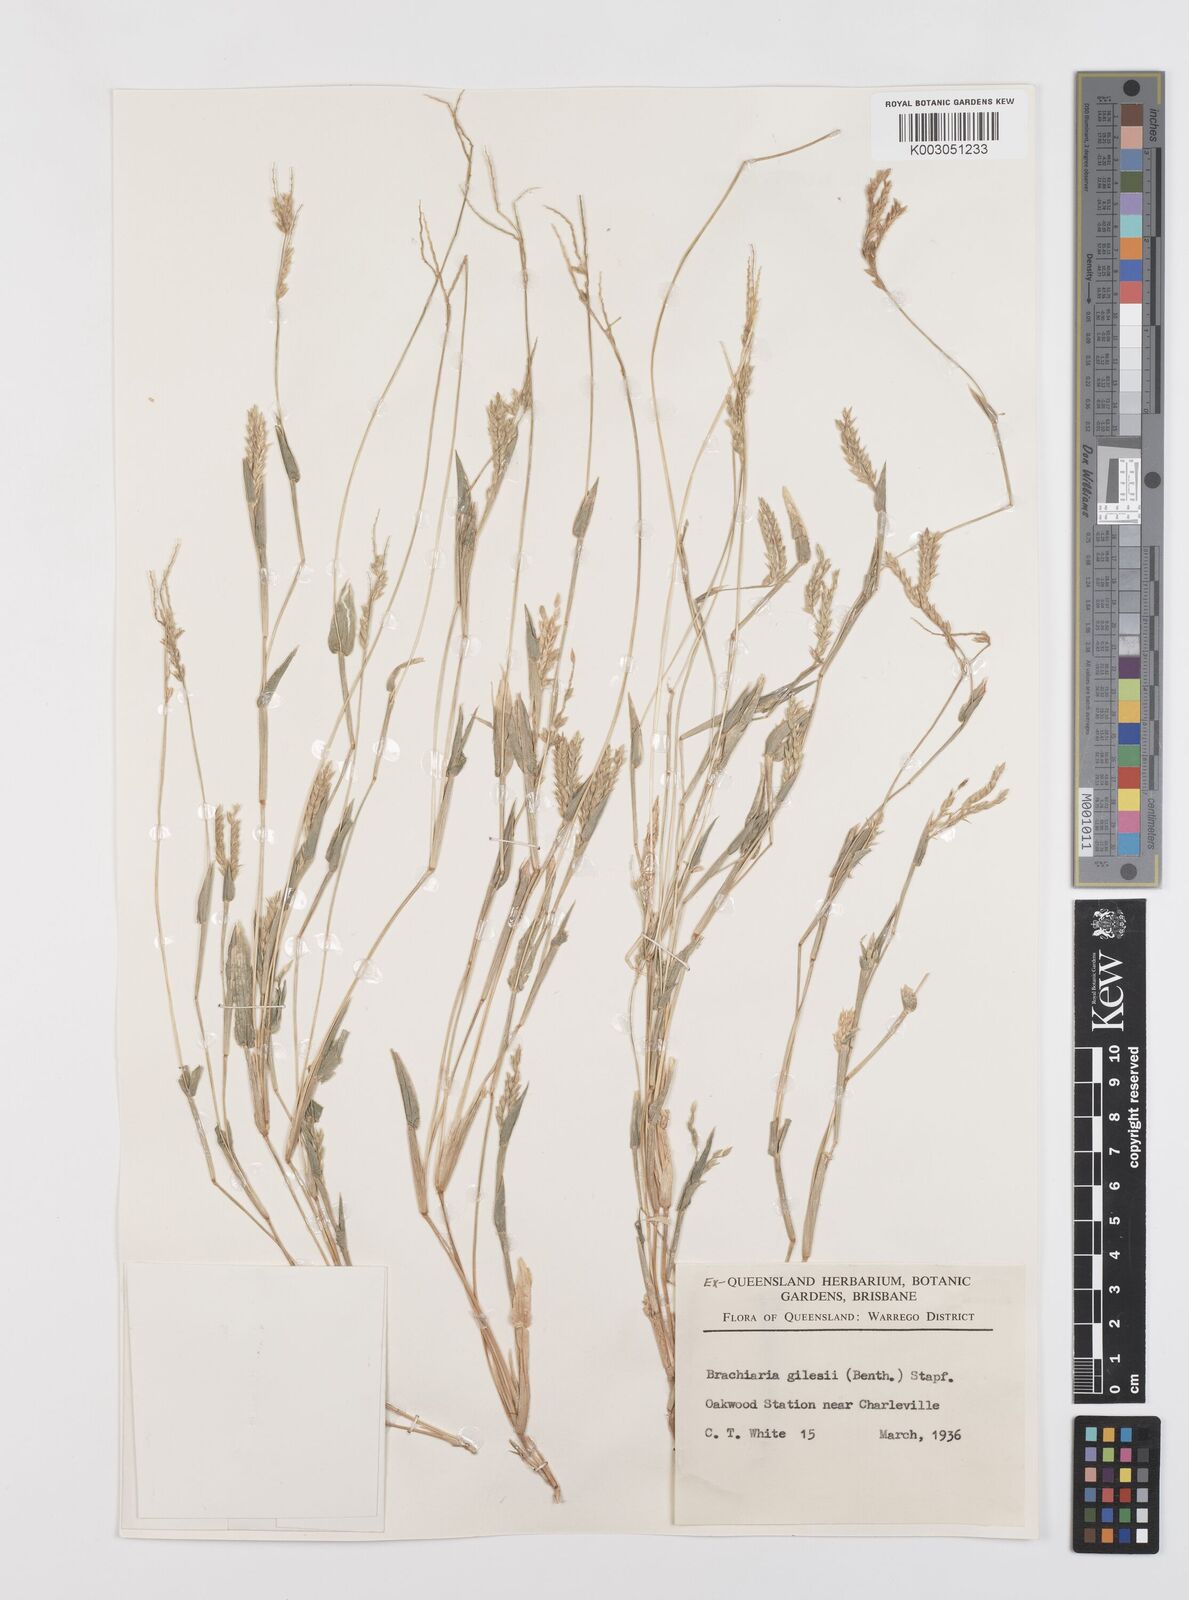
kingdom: Plantae
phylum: Tracheophyta
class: Liliopsida
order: Poales
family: Poaceae
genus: Urochloa
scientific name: Urochloa gilesii
